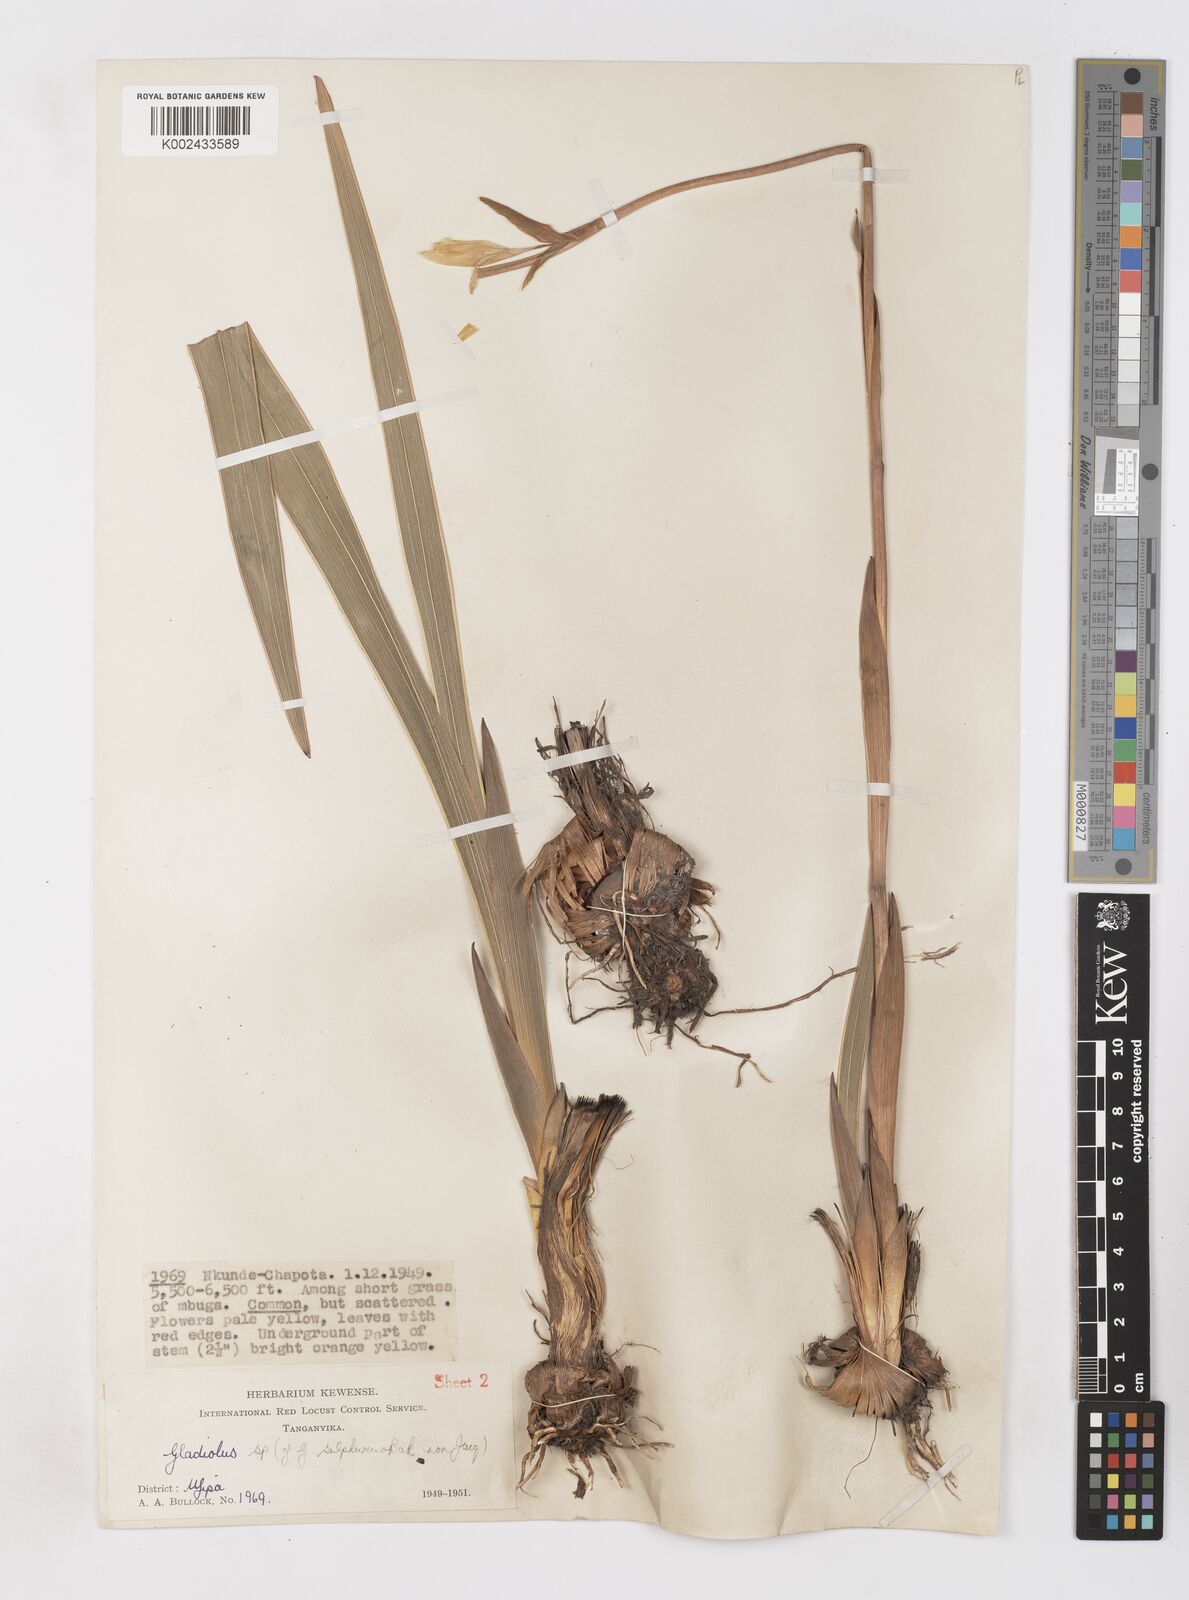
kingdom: Plantae
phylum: Tracheophyta
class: Liliopsida
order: Asparagales
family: Iridaceae
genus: Gladiolus
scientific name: Gladiolus melleri
